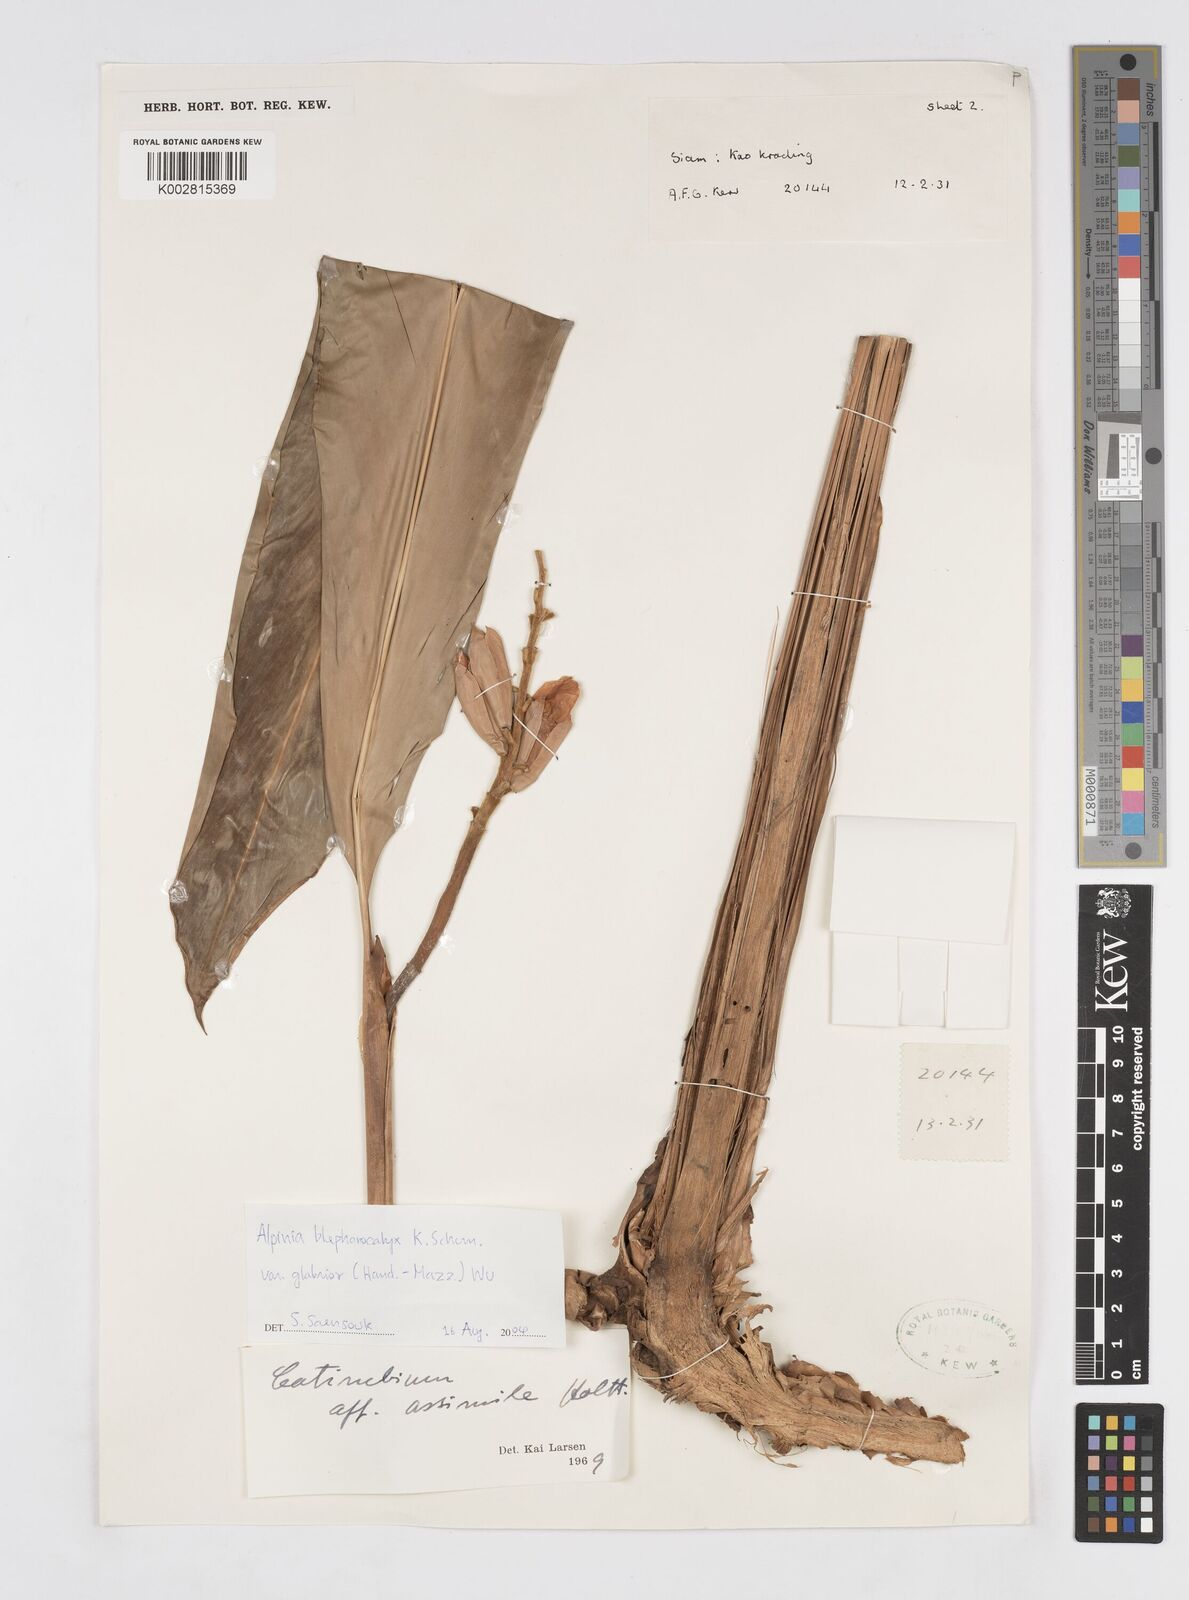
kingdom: Plantae
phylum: Tracheophyta
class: Liliopsida
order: Zingiberales
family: Zingiberaceae
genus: Alpinia
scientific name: Alpinia roxburghii
